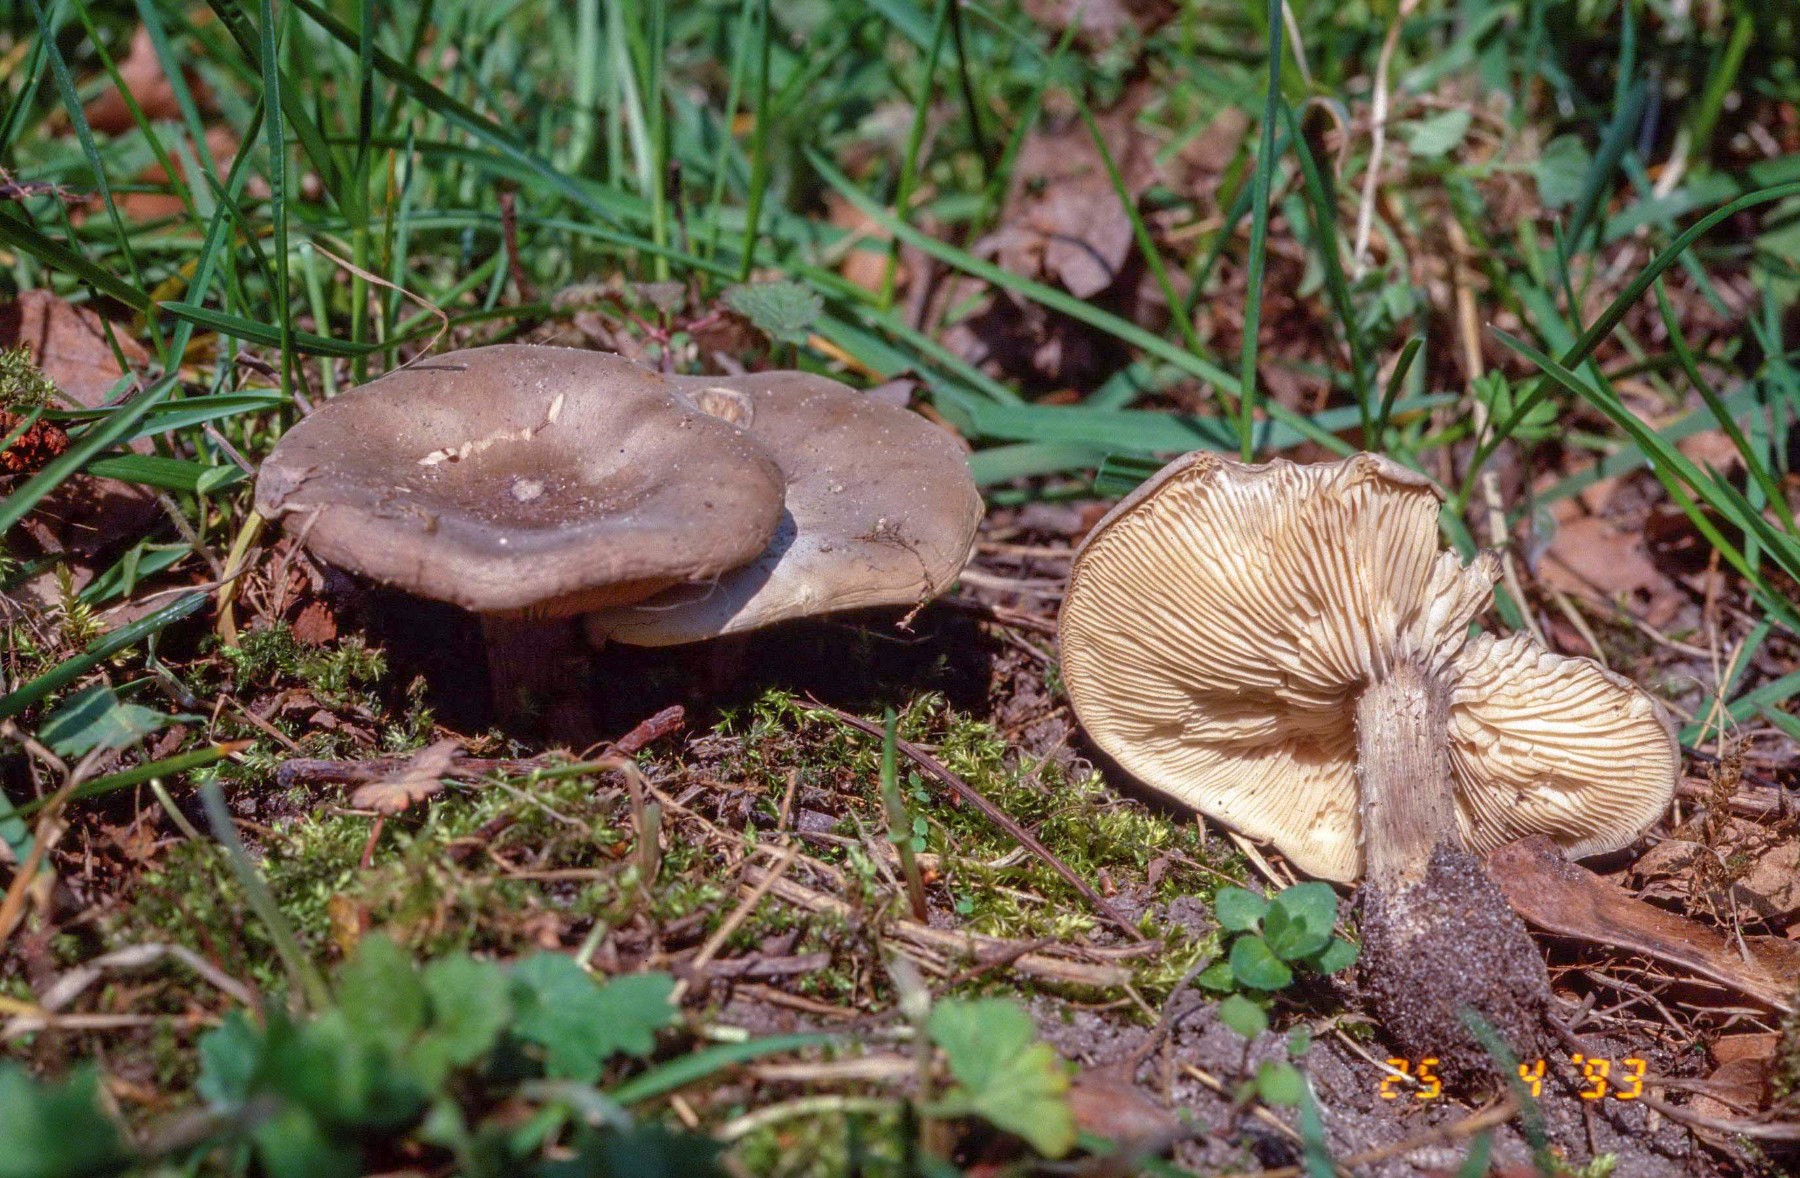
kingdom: Fungi
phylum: Basidiomycota
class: Agaricomycetes
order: Agaricales
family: Tricholomataceae
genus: Melanoleuca
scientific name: Melanoleuca
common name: munkehat
